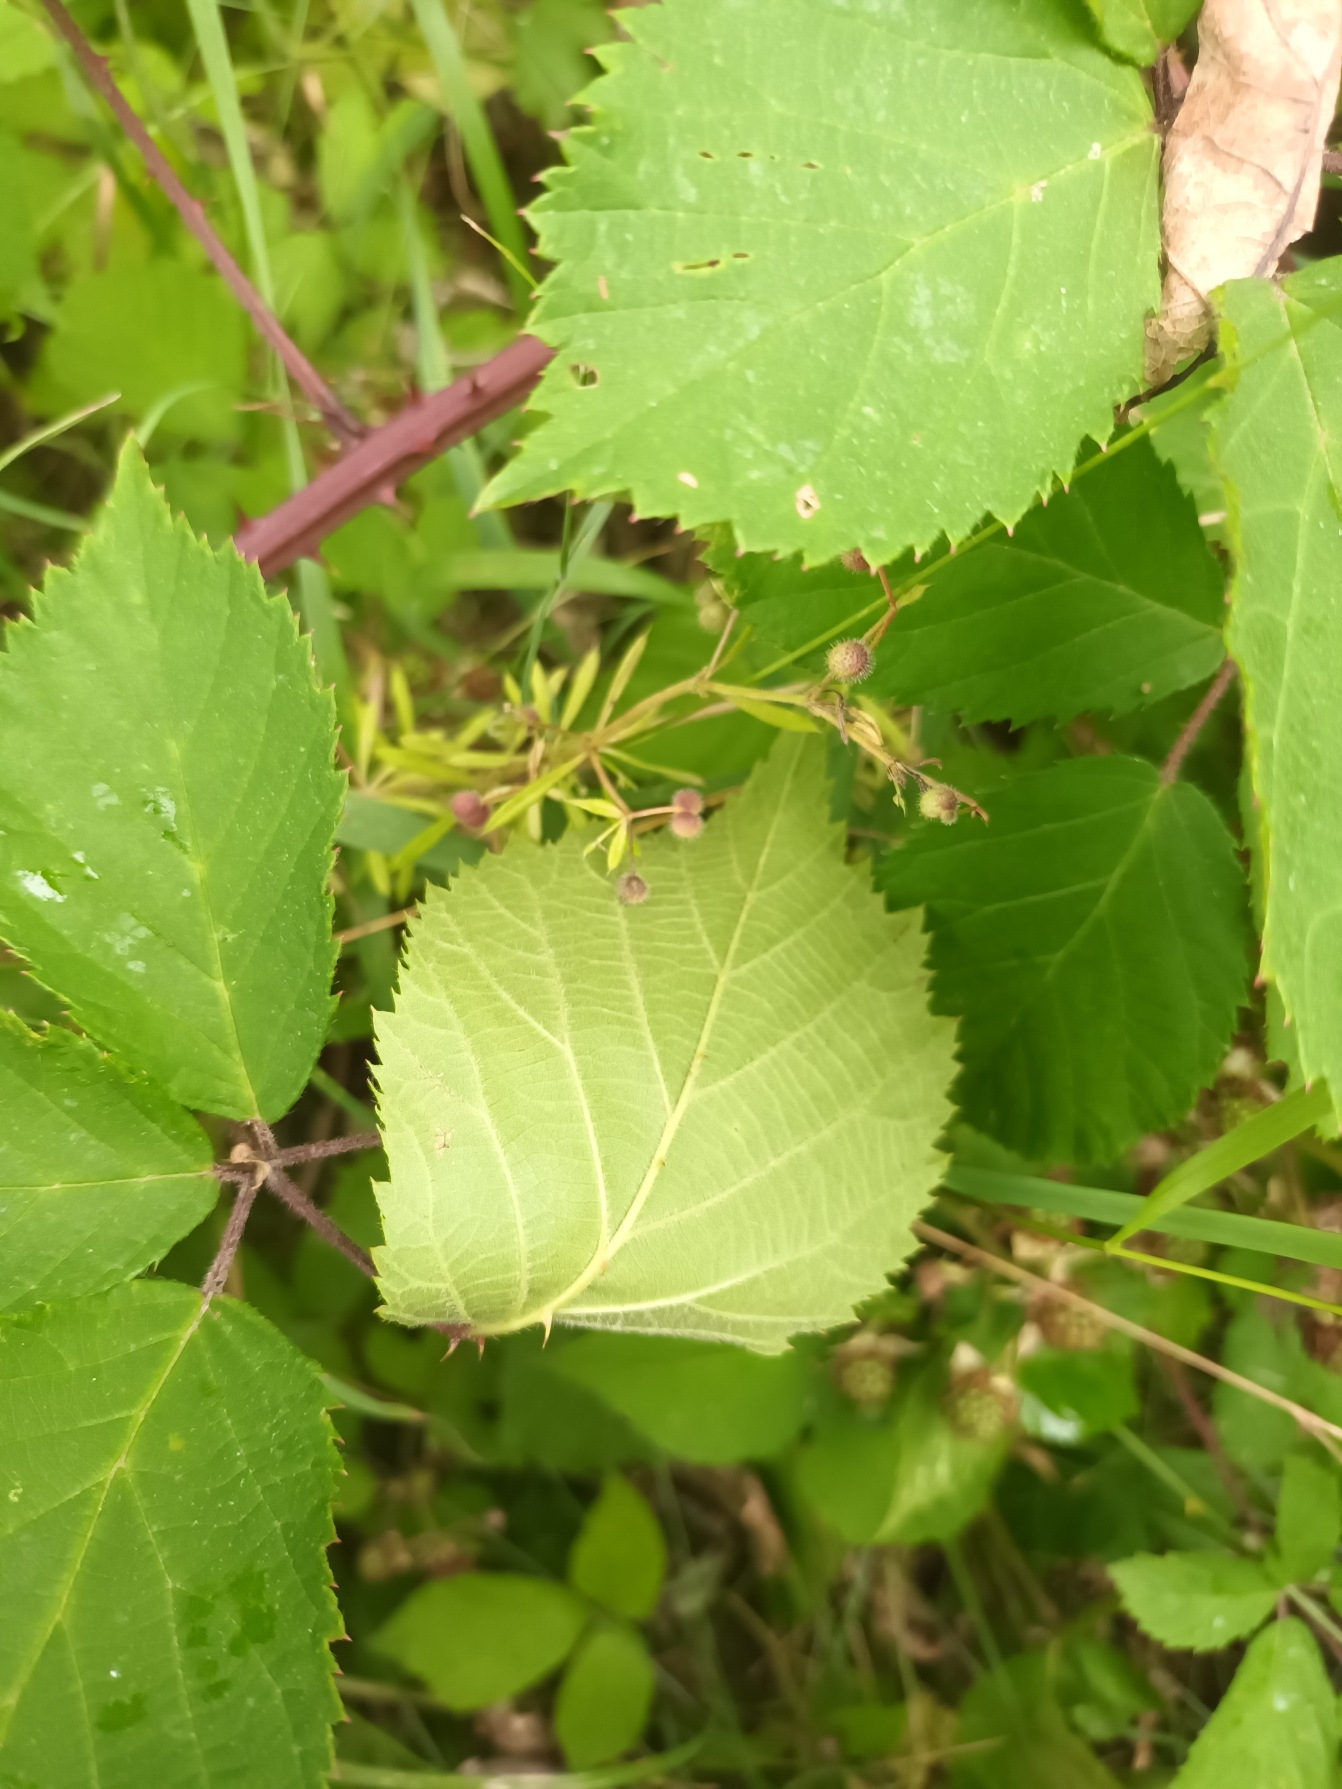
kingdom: Plantae
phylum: Tracheophyta
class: Magnoliopsida
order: Rosales
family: Rosaceae
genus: Rubus
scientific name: Rubus gratus
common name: Smuk brombær
